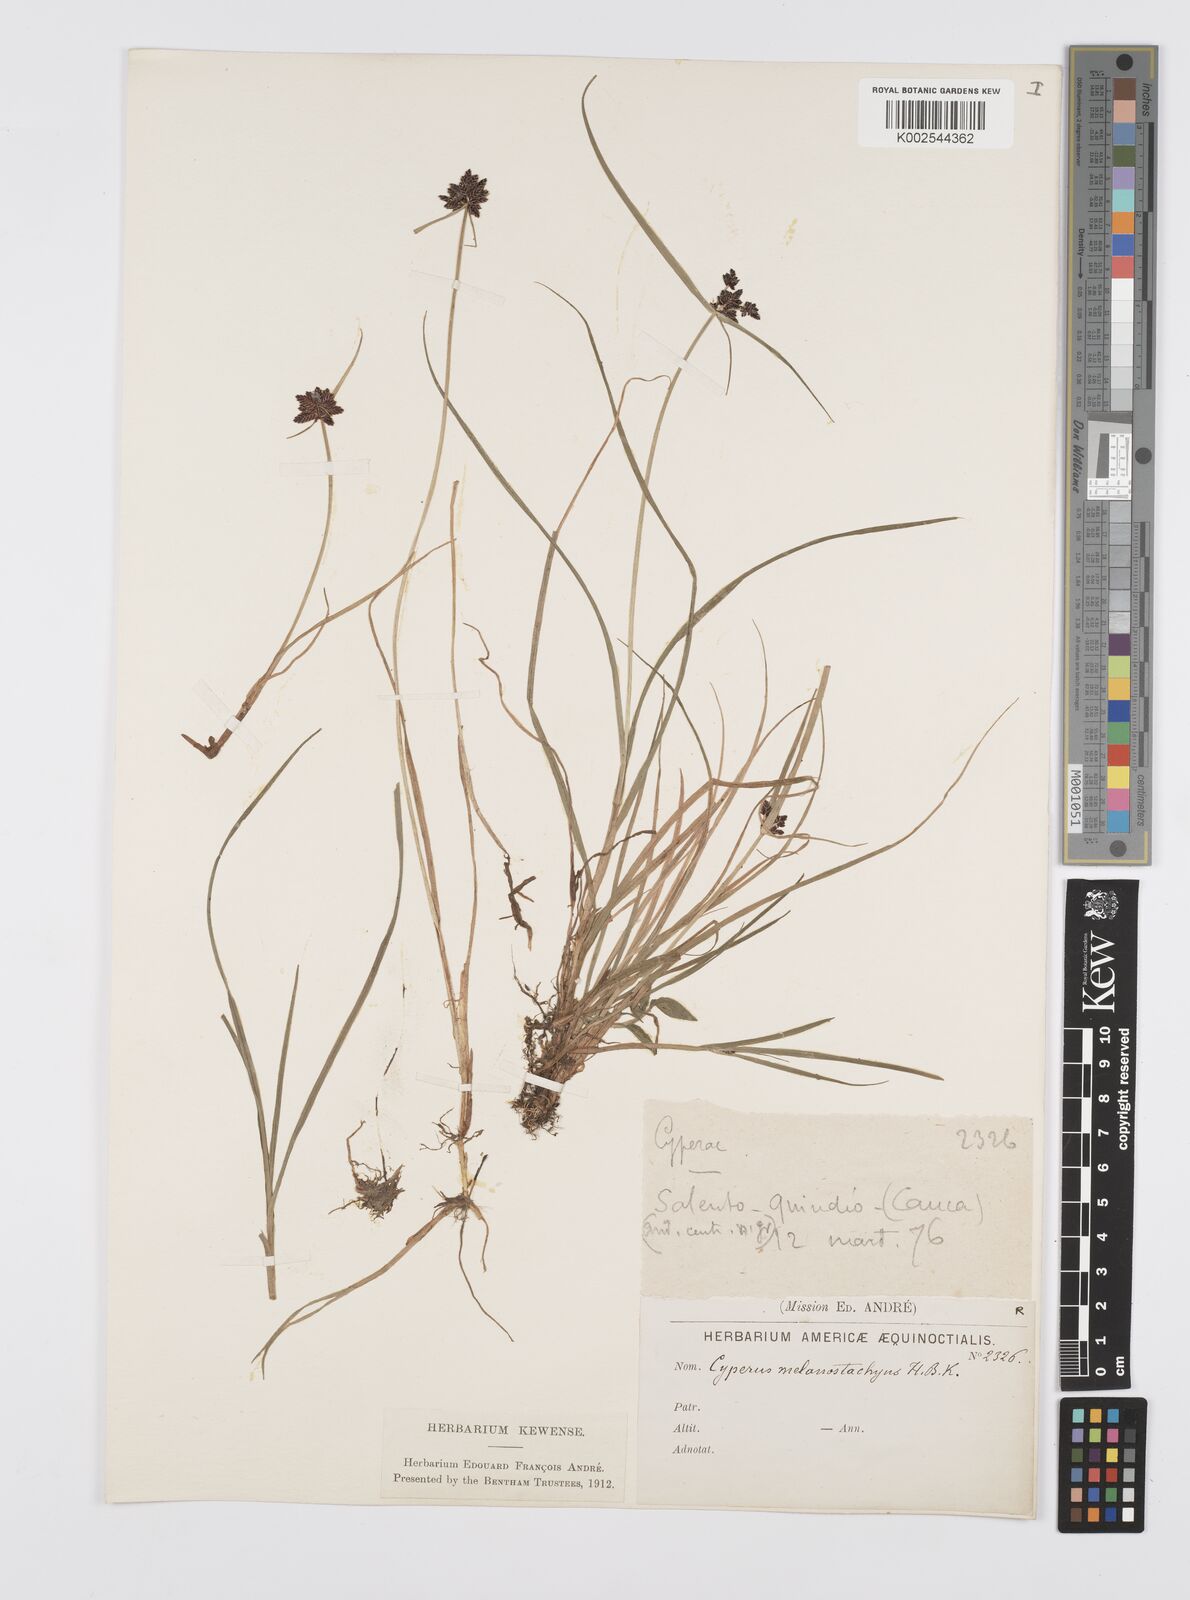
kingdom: Plantae
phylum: Tracheophyta
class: Liliopsida
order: Poales
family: Cyperaceae
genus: Cyperus
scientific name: Cyperus melanostachyus
